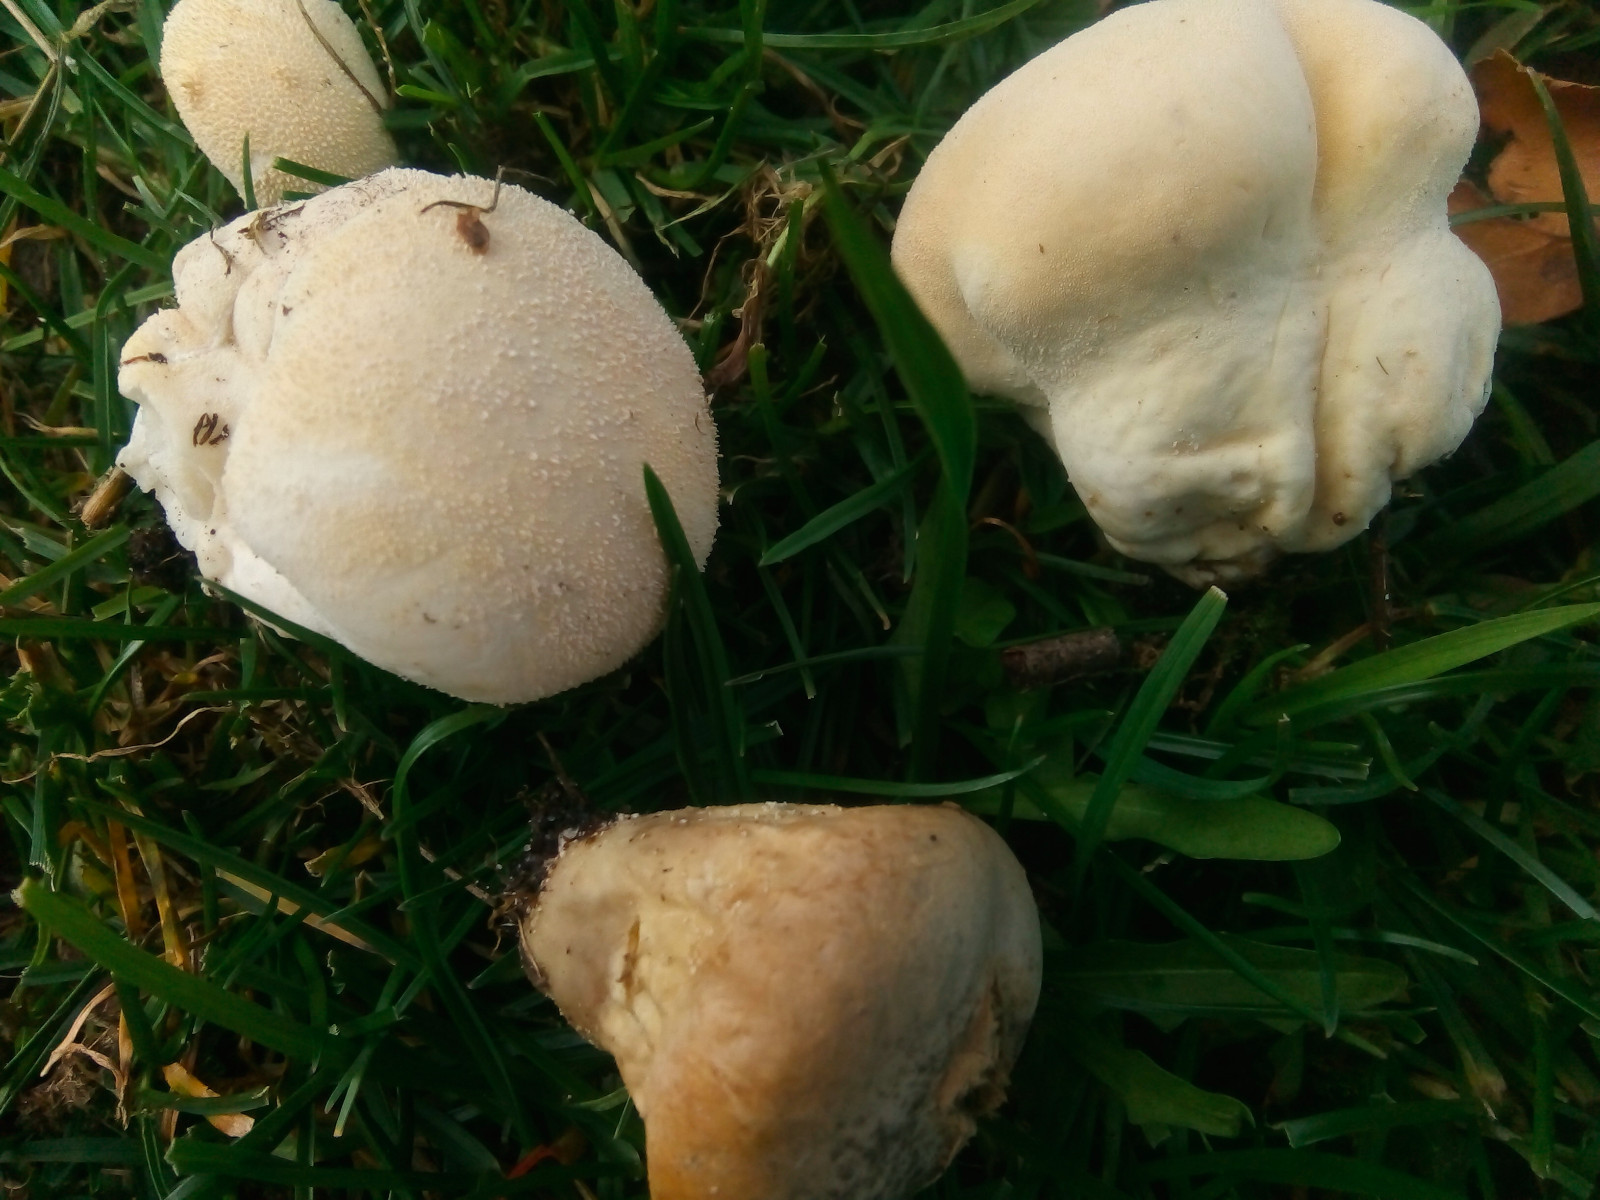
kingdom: Fungi
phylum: Basidiomycota
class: Agaricomycetes
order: Agaricales
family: Lycoperdaceae
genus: Lycoperdon
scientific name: Lycoperdon pratense
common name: flad støvbold
